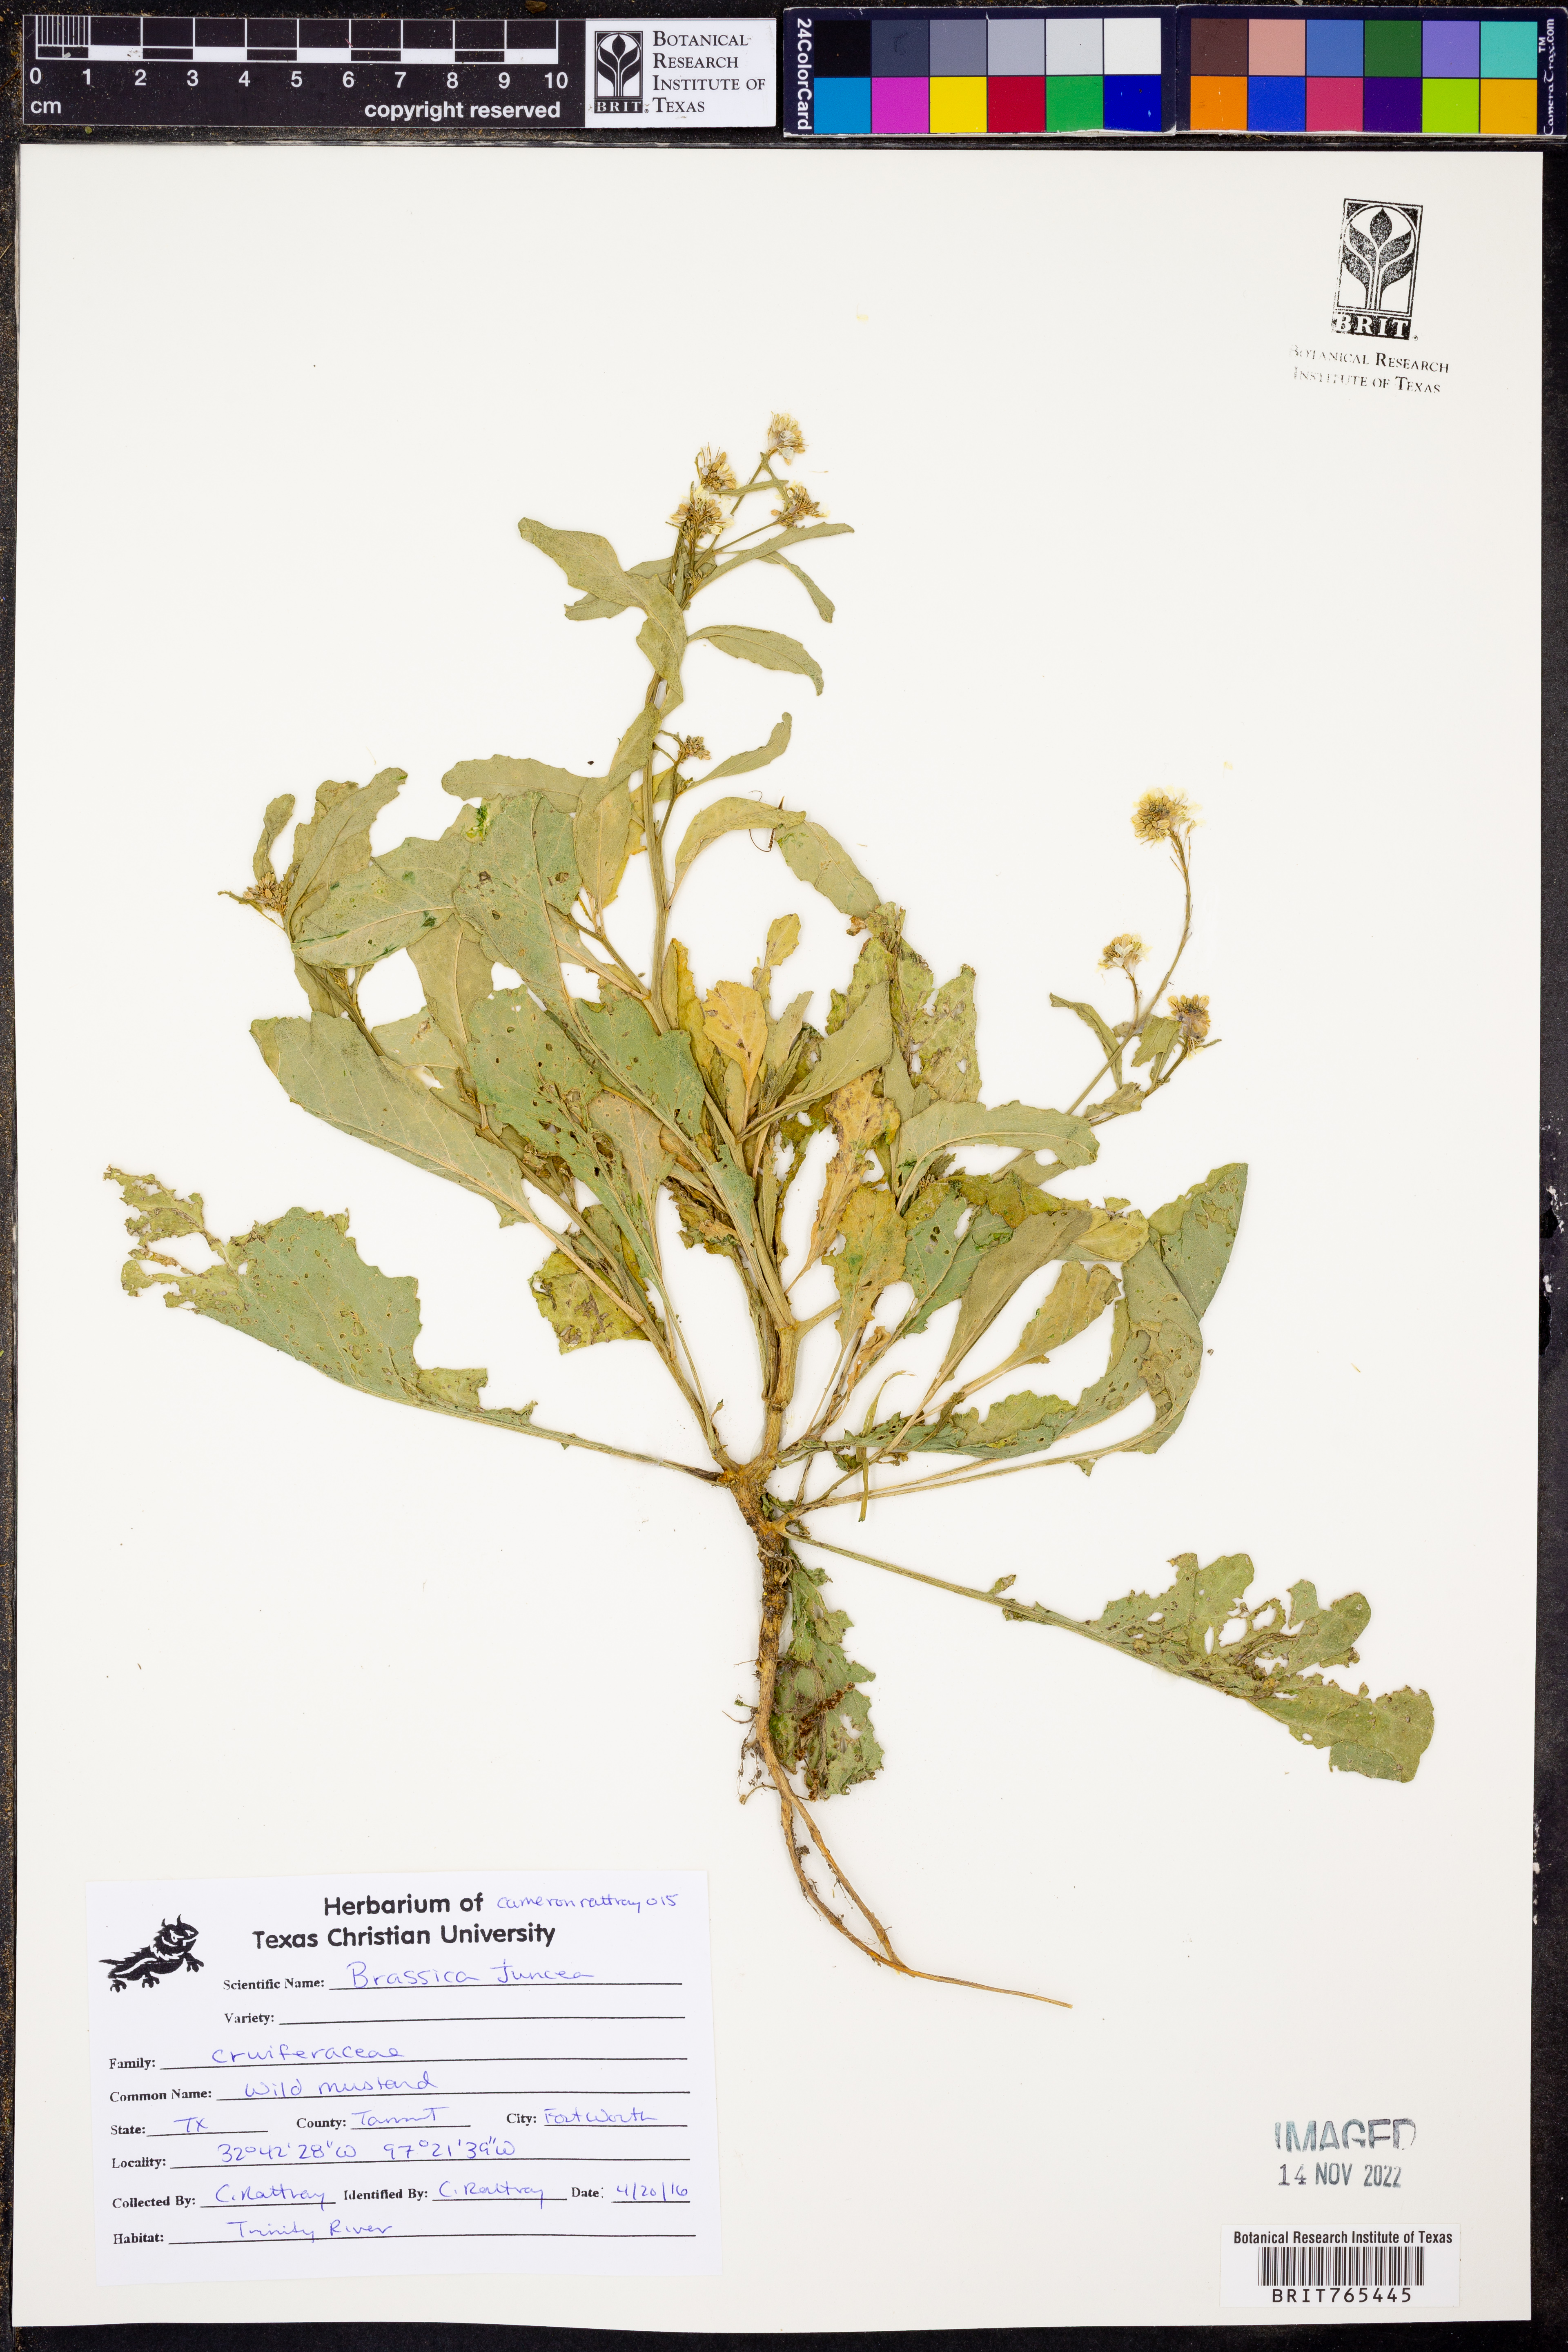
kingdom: Plantae
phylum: Tracheophyta
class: Magnoliopsida
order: Brassicales
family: Brassicaceae
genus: Brassica
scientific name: Brassica juncea
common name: Brown mustard
